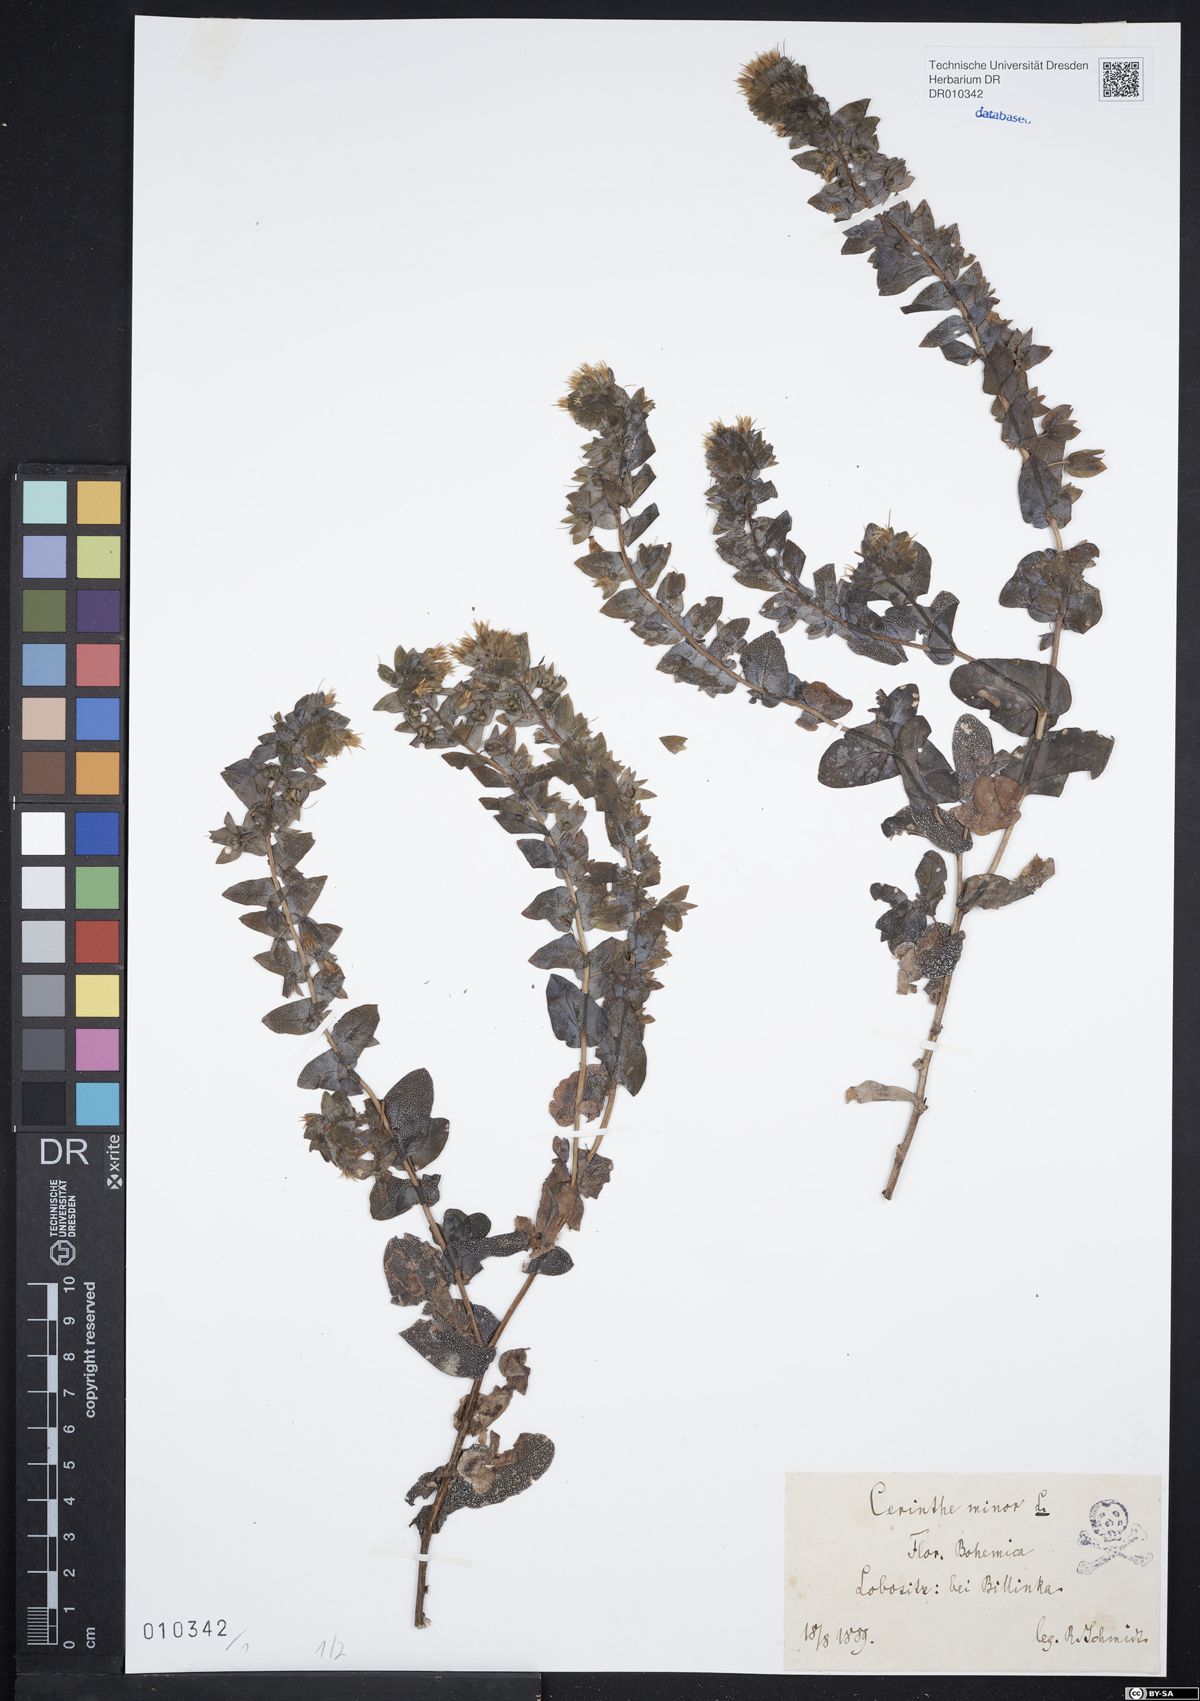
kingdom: Plantae
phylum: Tracheophyta
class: Magnoliopsida
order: Boraginales
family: Boraginaceae
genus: Cerinthe
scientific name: Cerinthe minor
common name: Lesser honeywort
